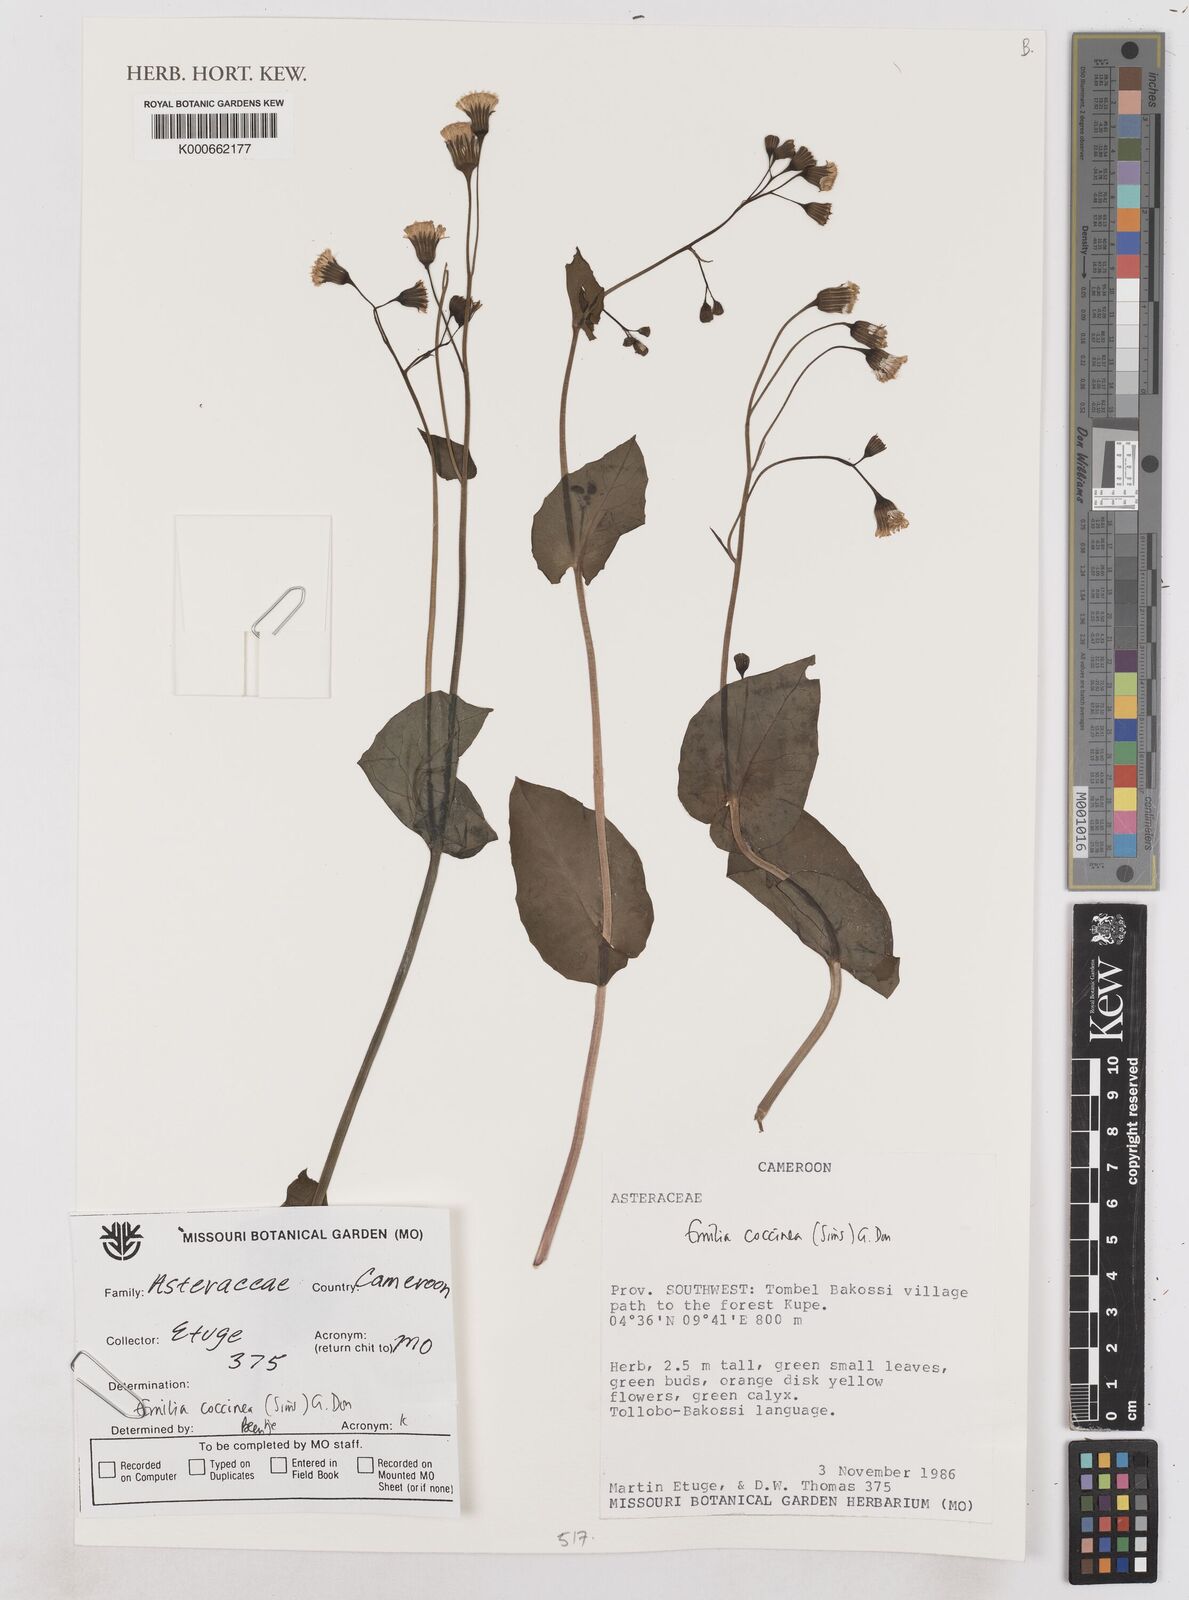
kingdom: Plantae
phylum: Tracheophyta
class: Magnoliopsida
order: Asterales
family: Asteraceae
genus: Emilia
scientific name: Emilia coccinea
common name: Scarlet tasselflower
